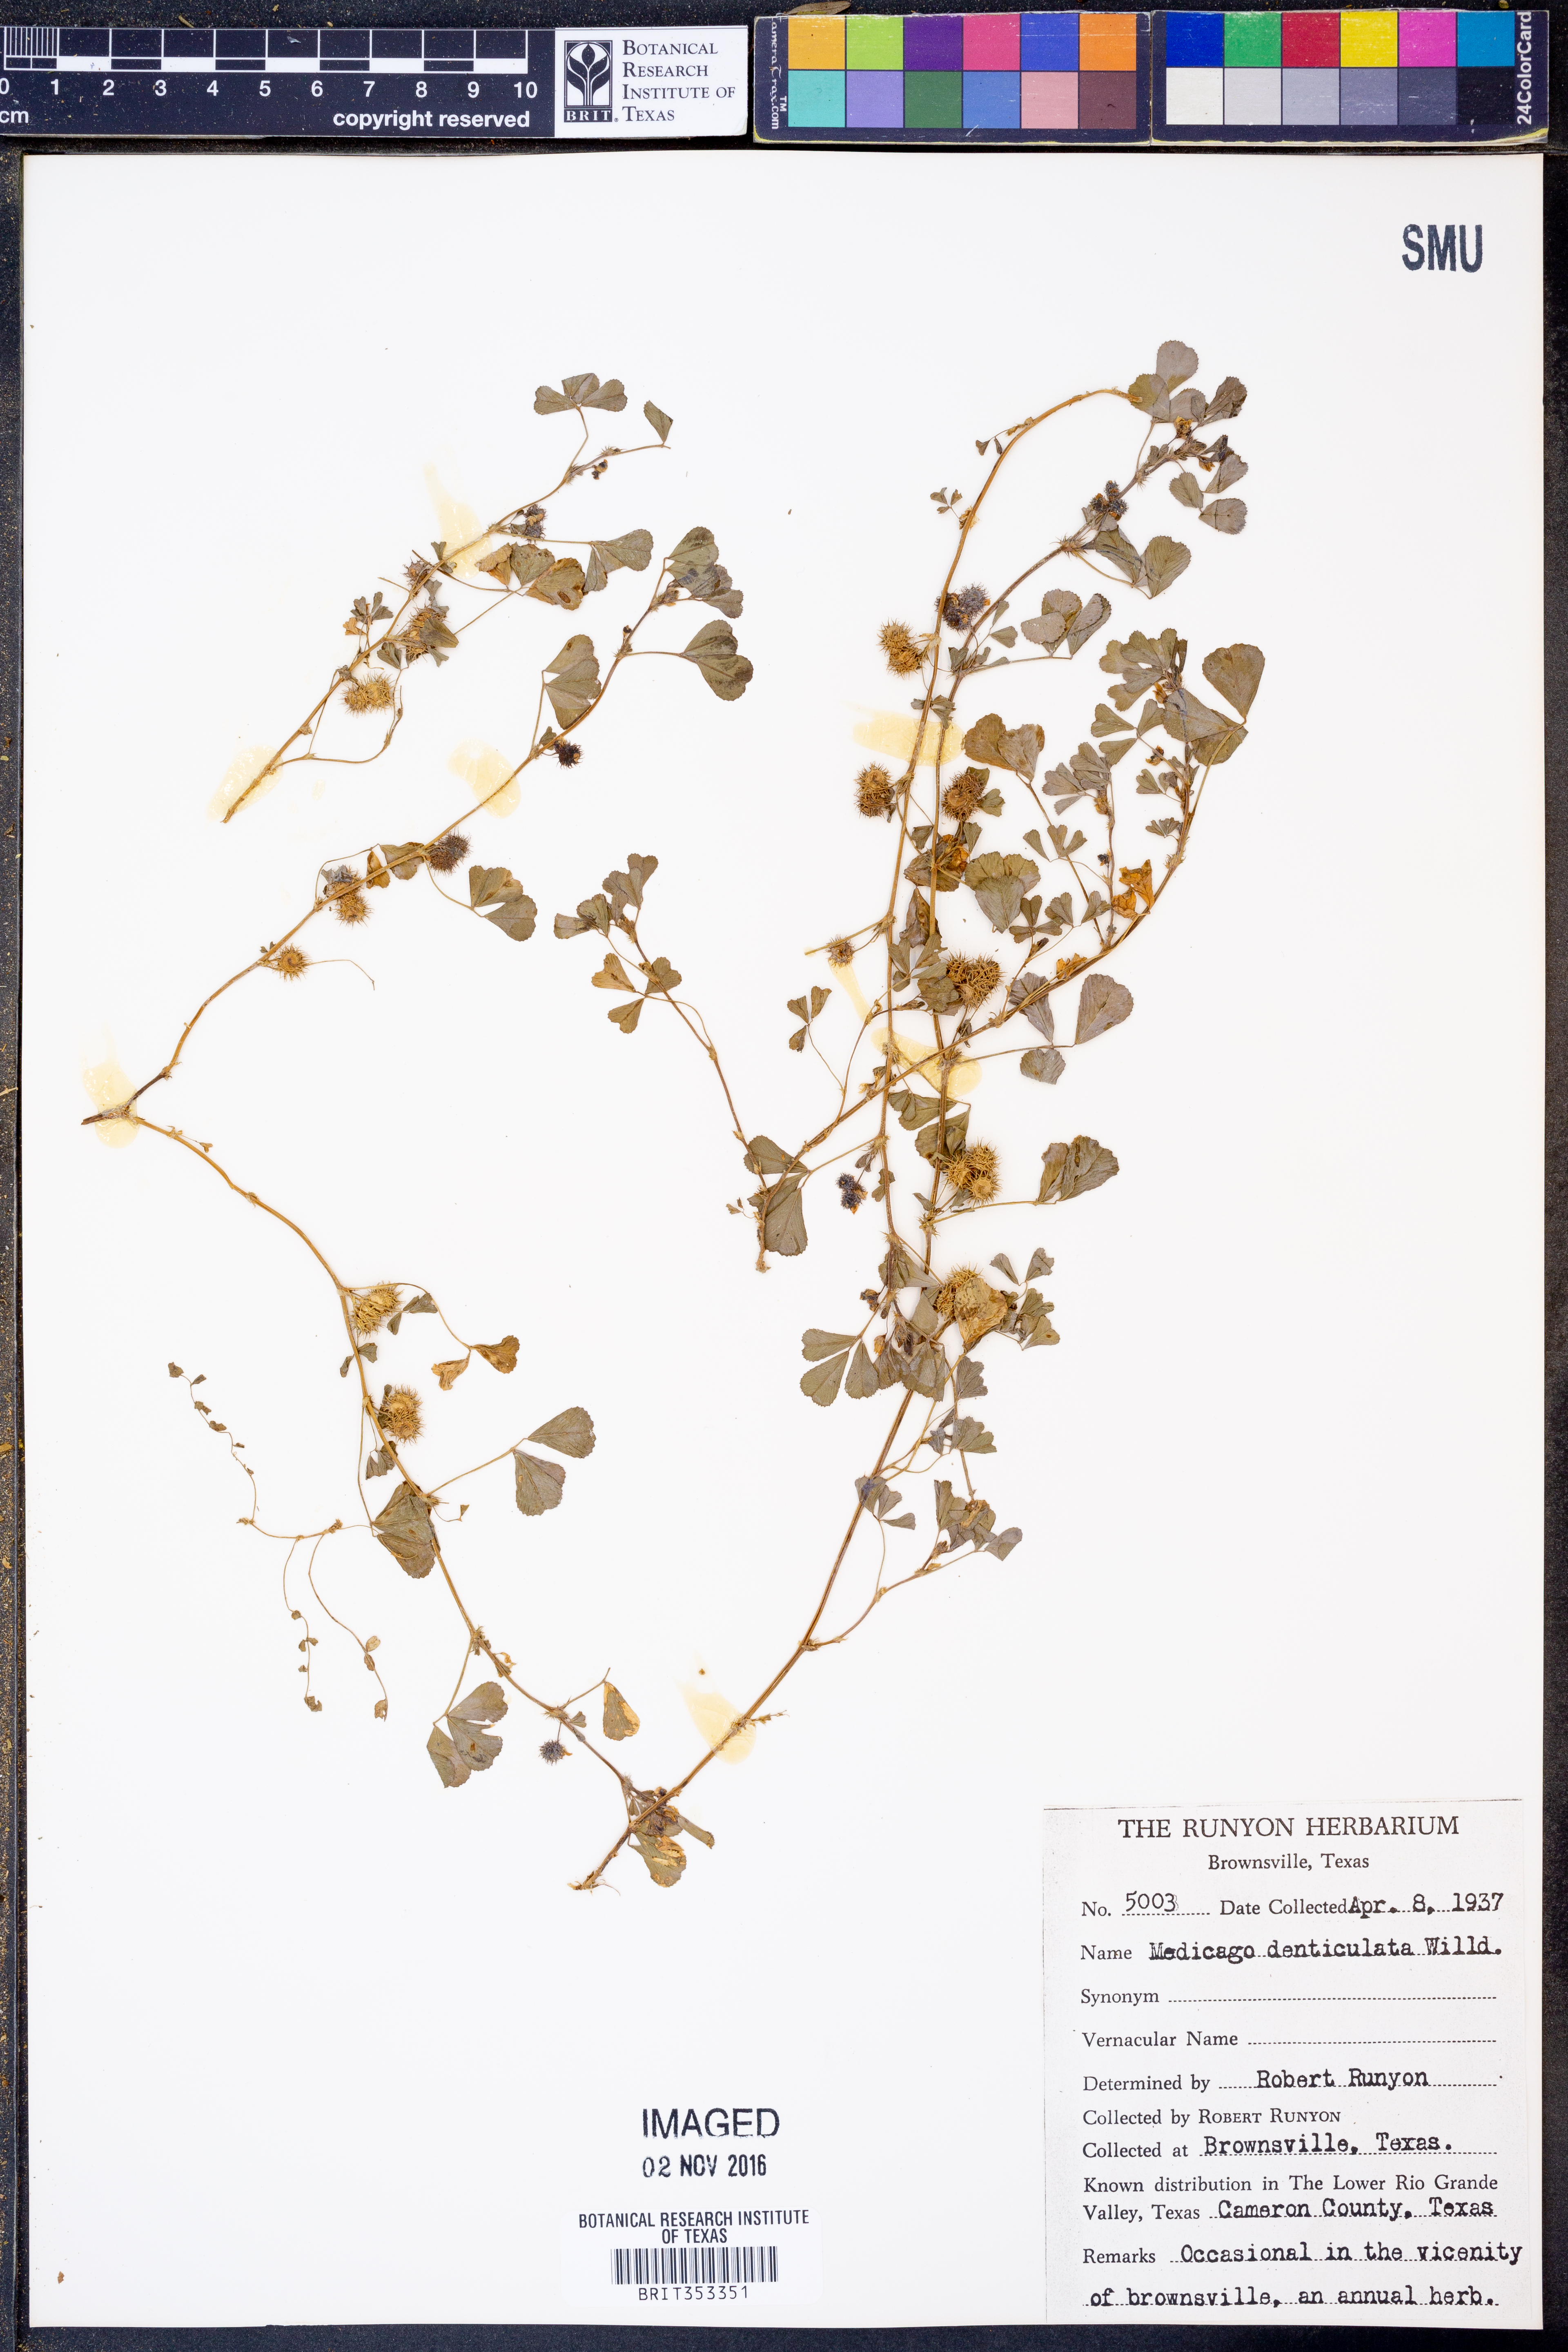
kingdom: Plantae
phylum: Tracheophyta
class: Magnoliopsida
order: Fabales
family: Fabaceae
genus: Medicago
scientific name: Medicago polymorpha
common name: Burclover
